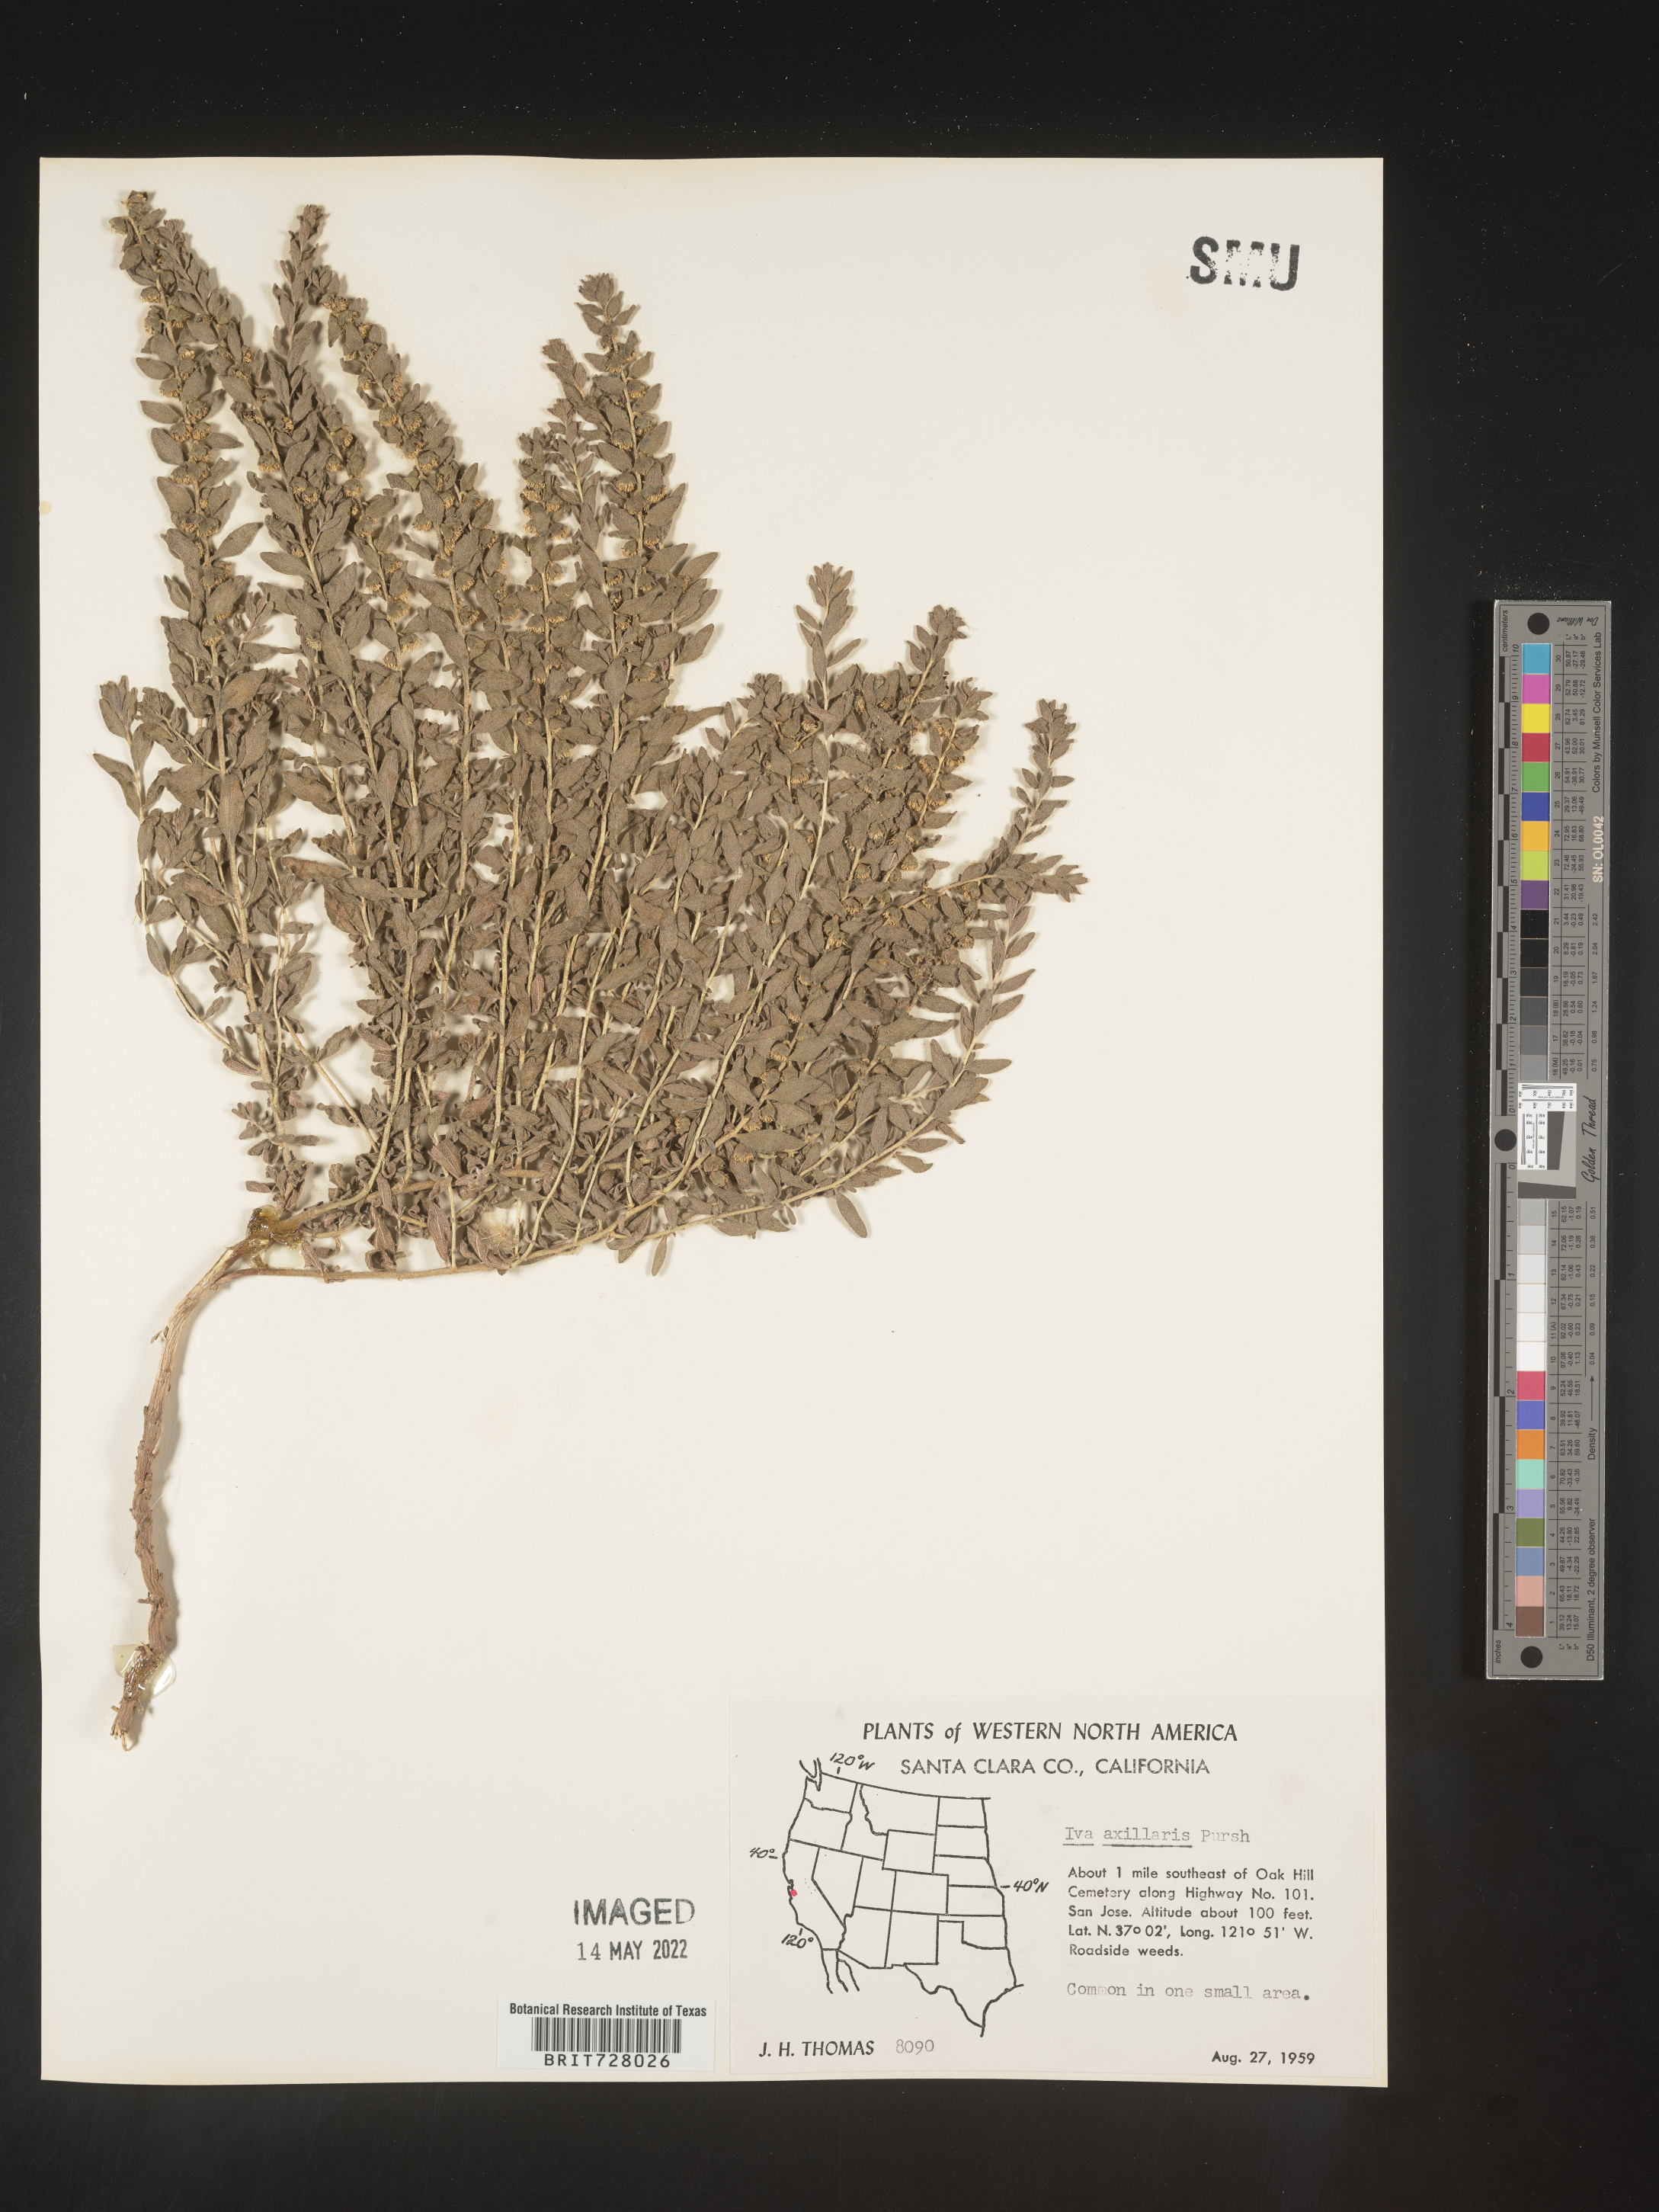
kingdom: Plantae
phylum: Tracheophyta
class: Magnoliopsida
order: Asterales
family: Asteraceae
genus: Iva
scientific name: Iva axillaris
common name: Poverty sumpweed
